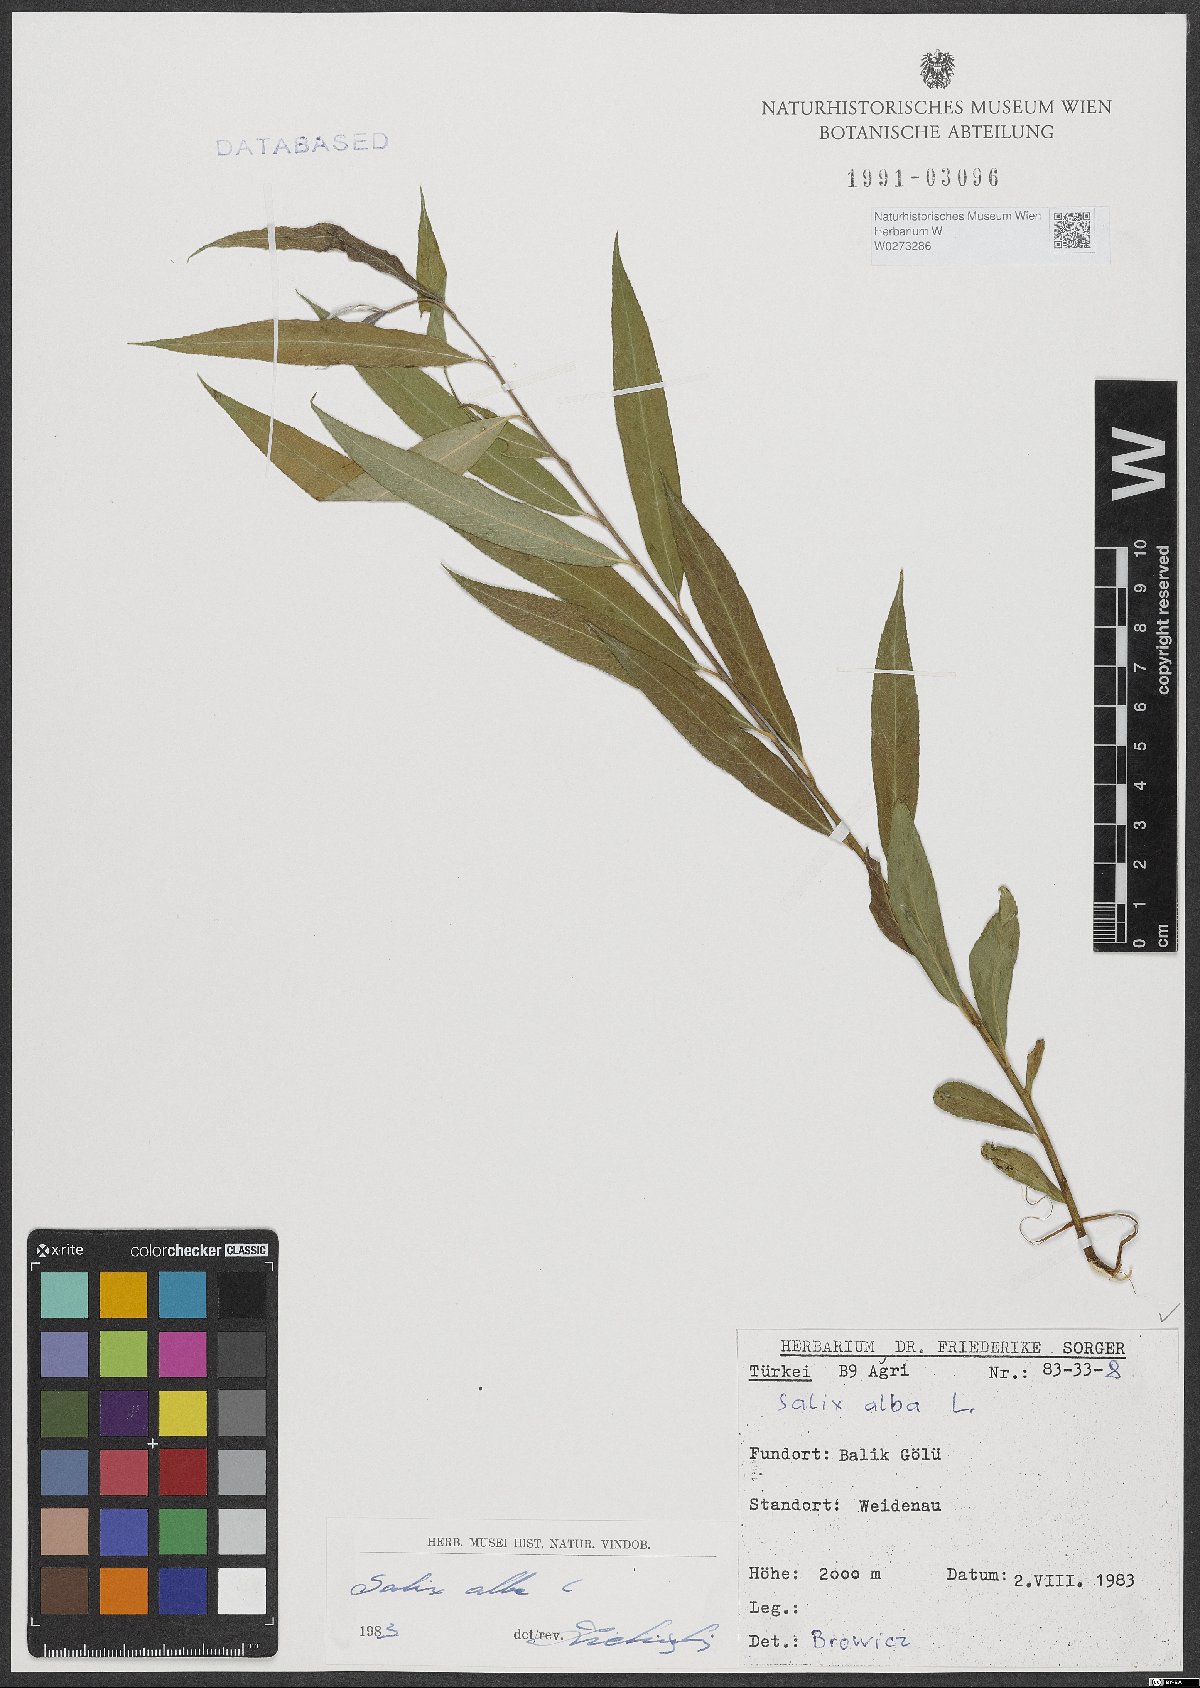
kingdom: Plantae
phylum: Tracheophyta
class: Magnoliopsida
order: Malpighiales
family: Salicaceae
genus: Salix
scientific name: Salix alba
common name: White willow
